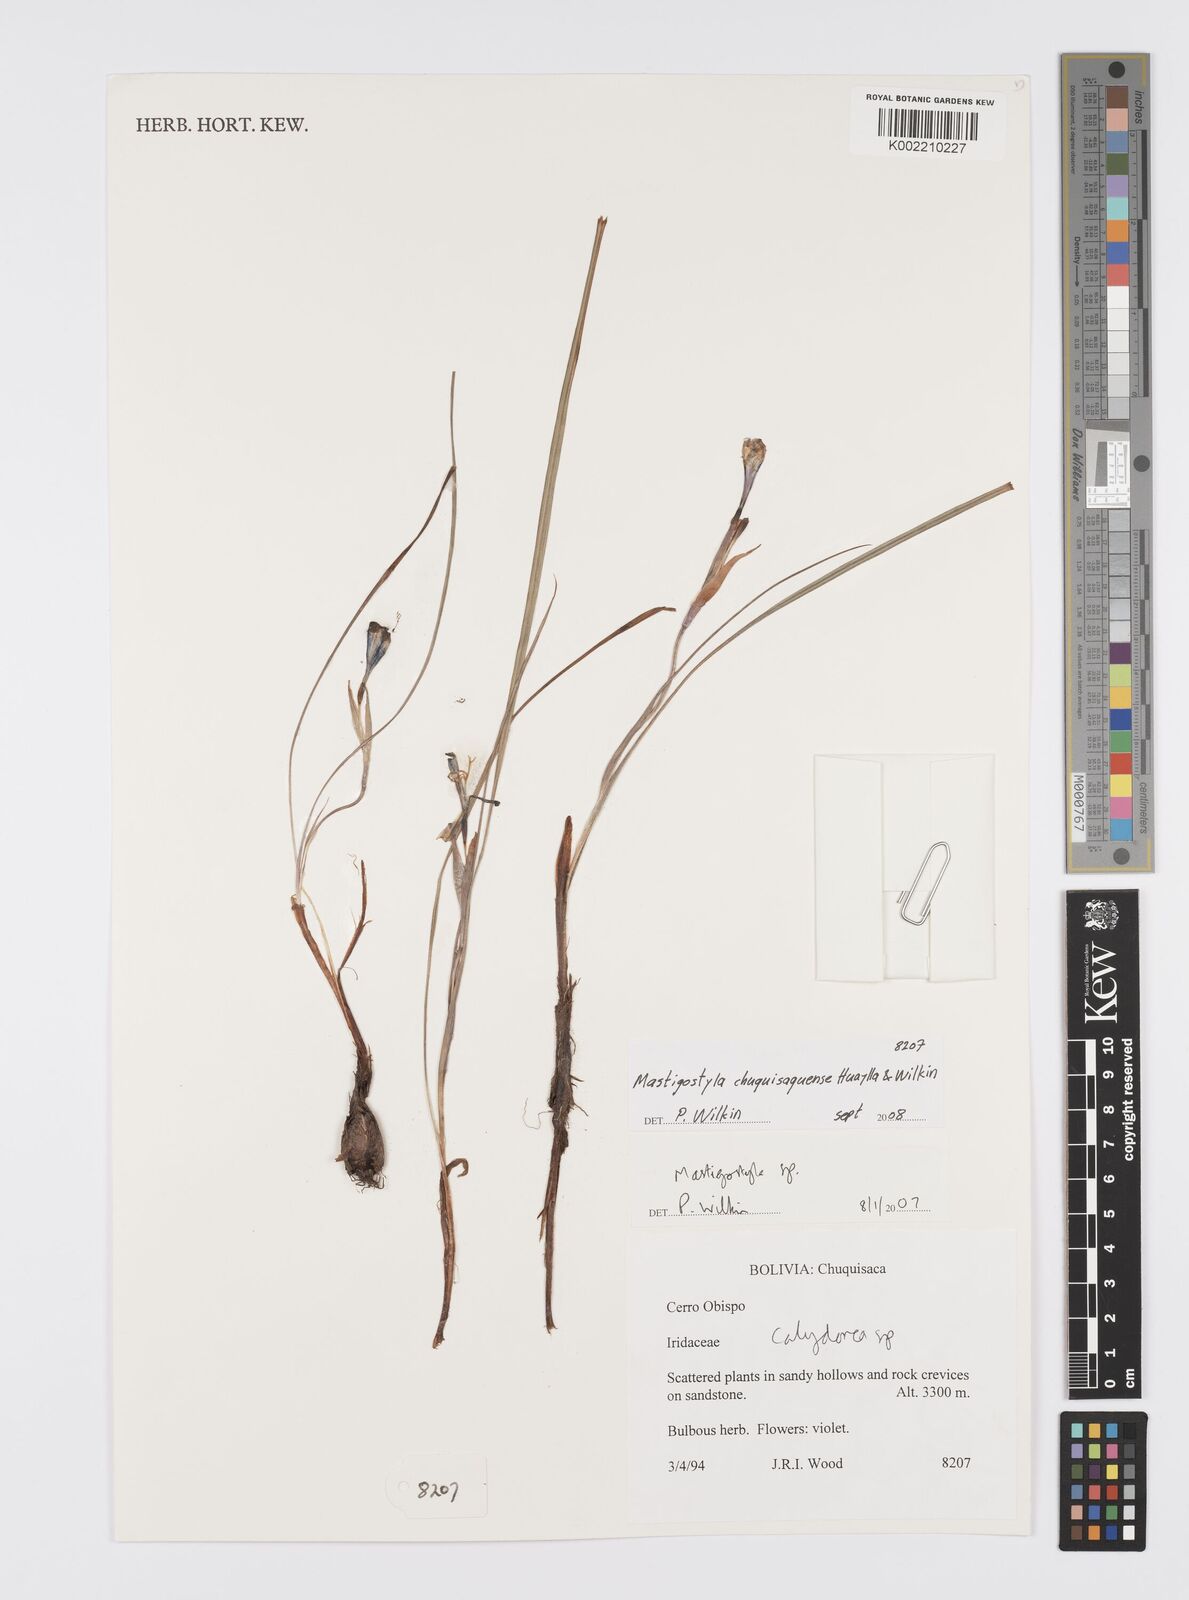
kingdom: Plantae
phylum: Tracheophyta
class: Liliopsida
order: Asparagales
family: Iridaceae
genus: Mastigostyla
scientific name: Mastigostyla chuquisacensis
